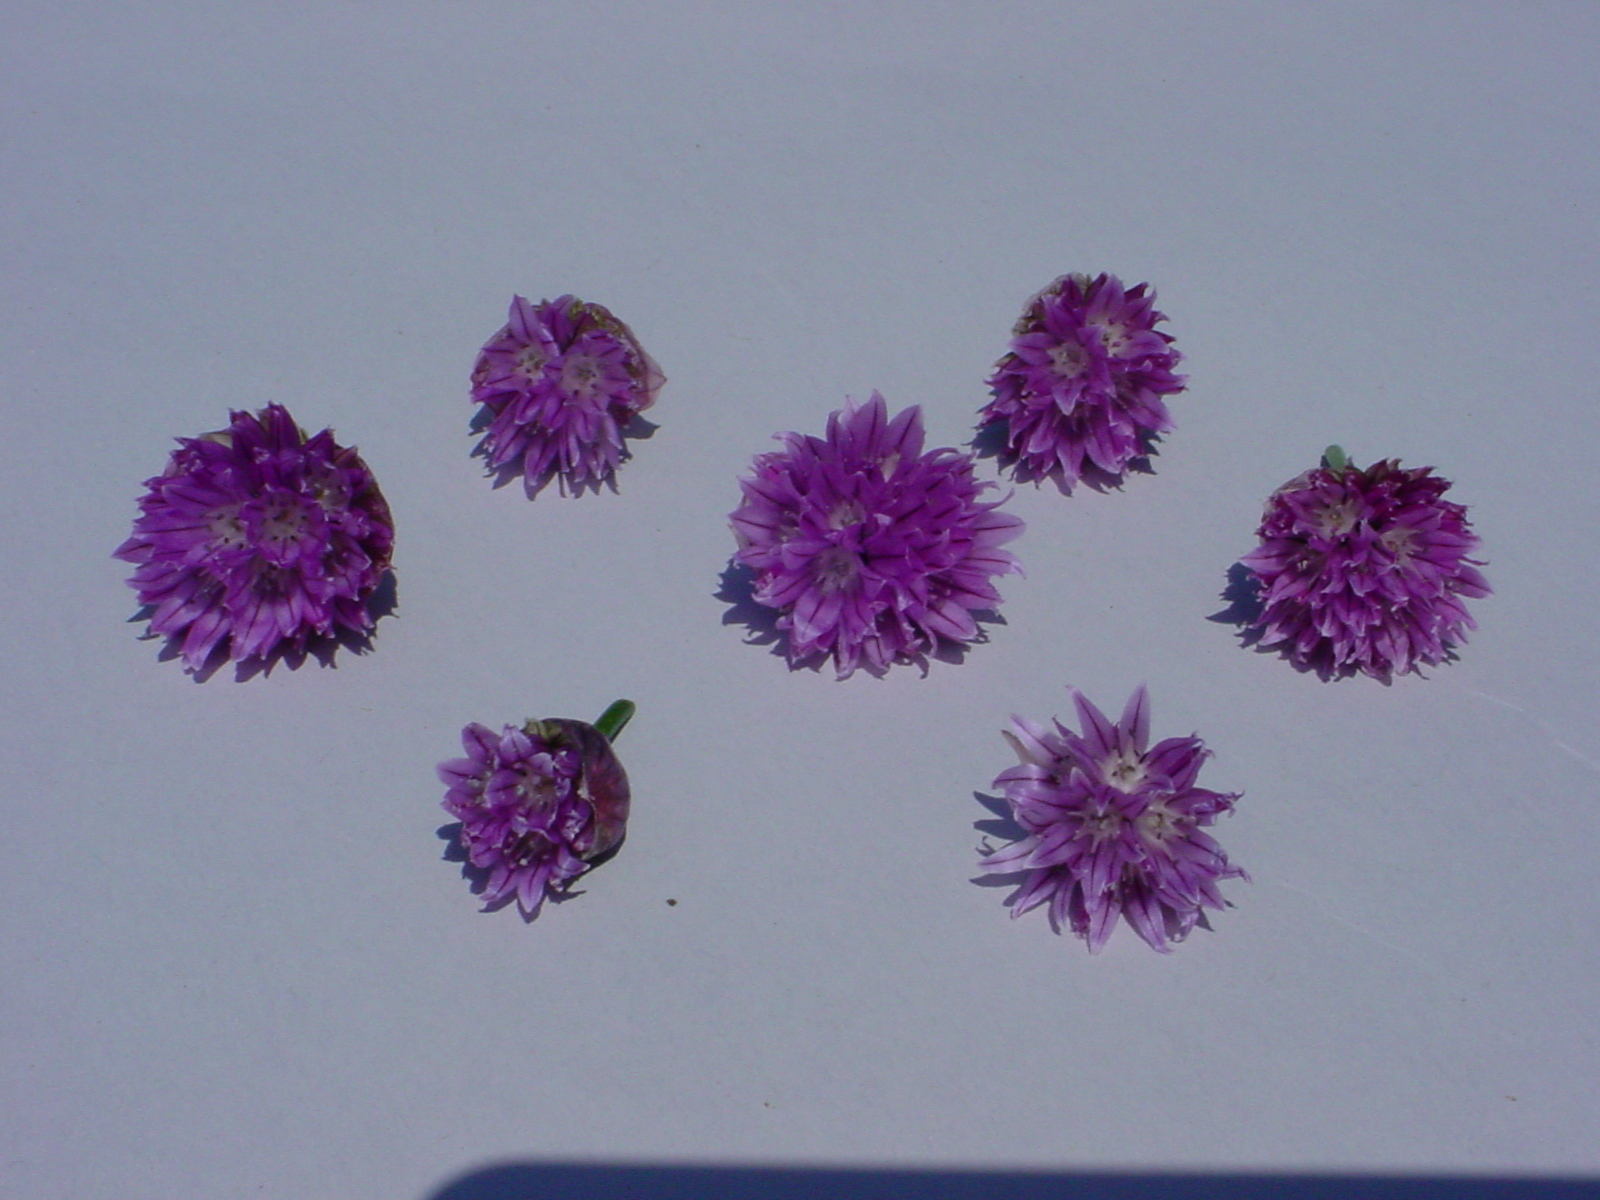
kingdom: Plantae
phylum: Tracheophyta
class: Liliopsida
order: Asparagales
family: Amaryllidaceae
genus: Allium
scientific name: Allium schoenoprasum
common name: Chives
